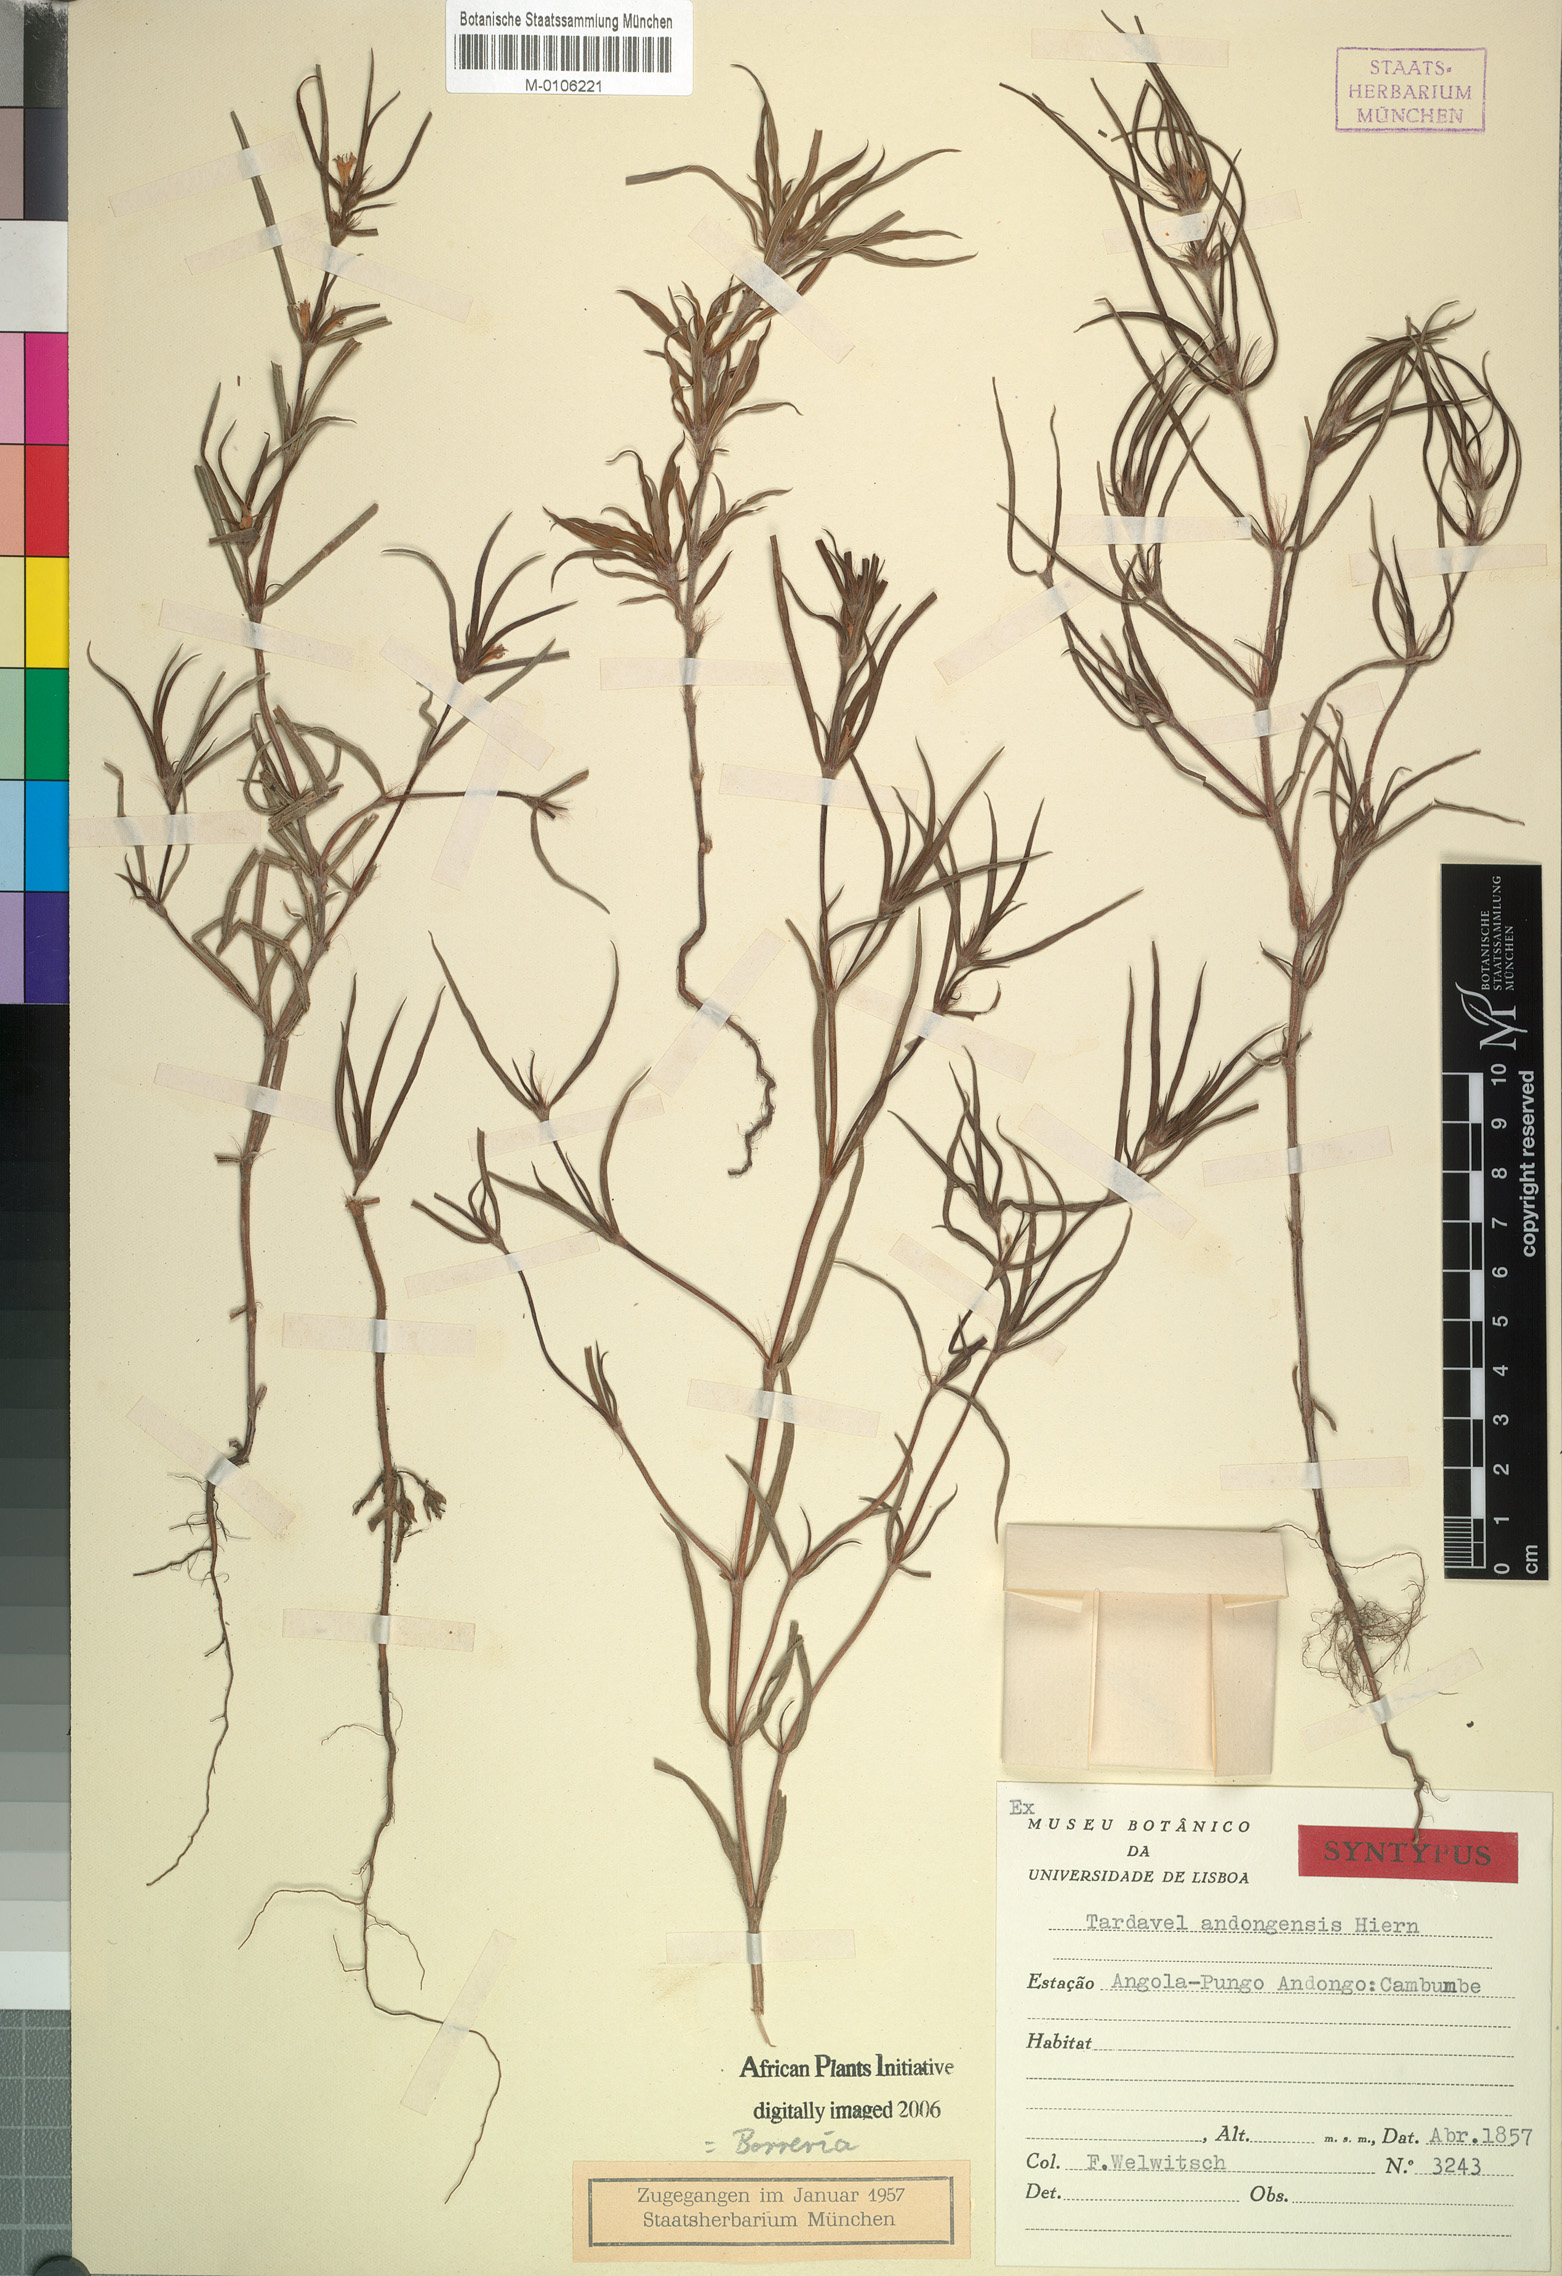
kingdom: Plantae
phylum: Tracheophyta
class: Magnoliopsida
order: Gentianales
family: Rubiaceae
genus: Spermacoce
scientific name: Spermacoce radiata
